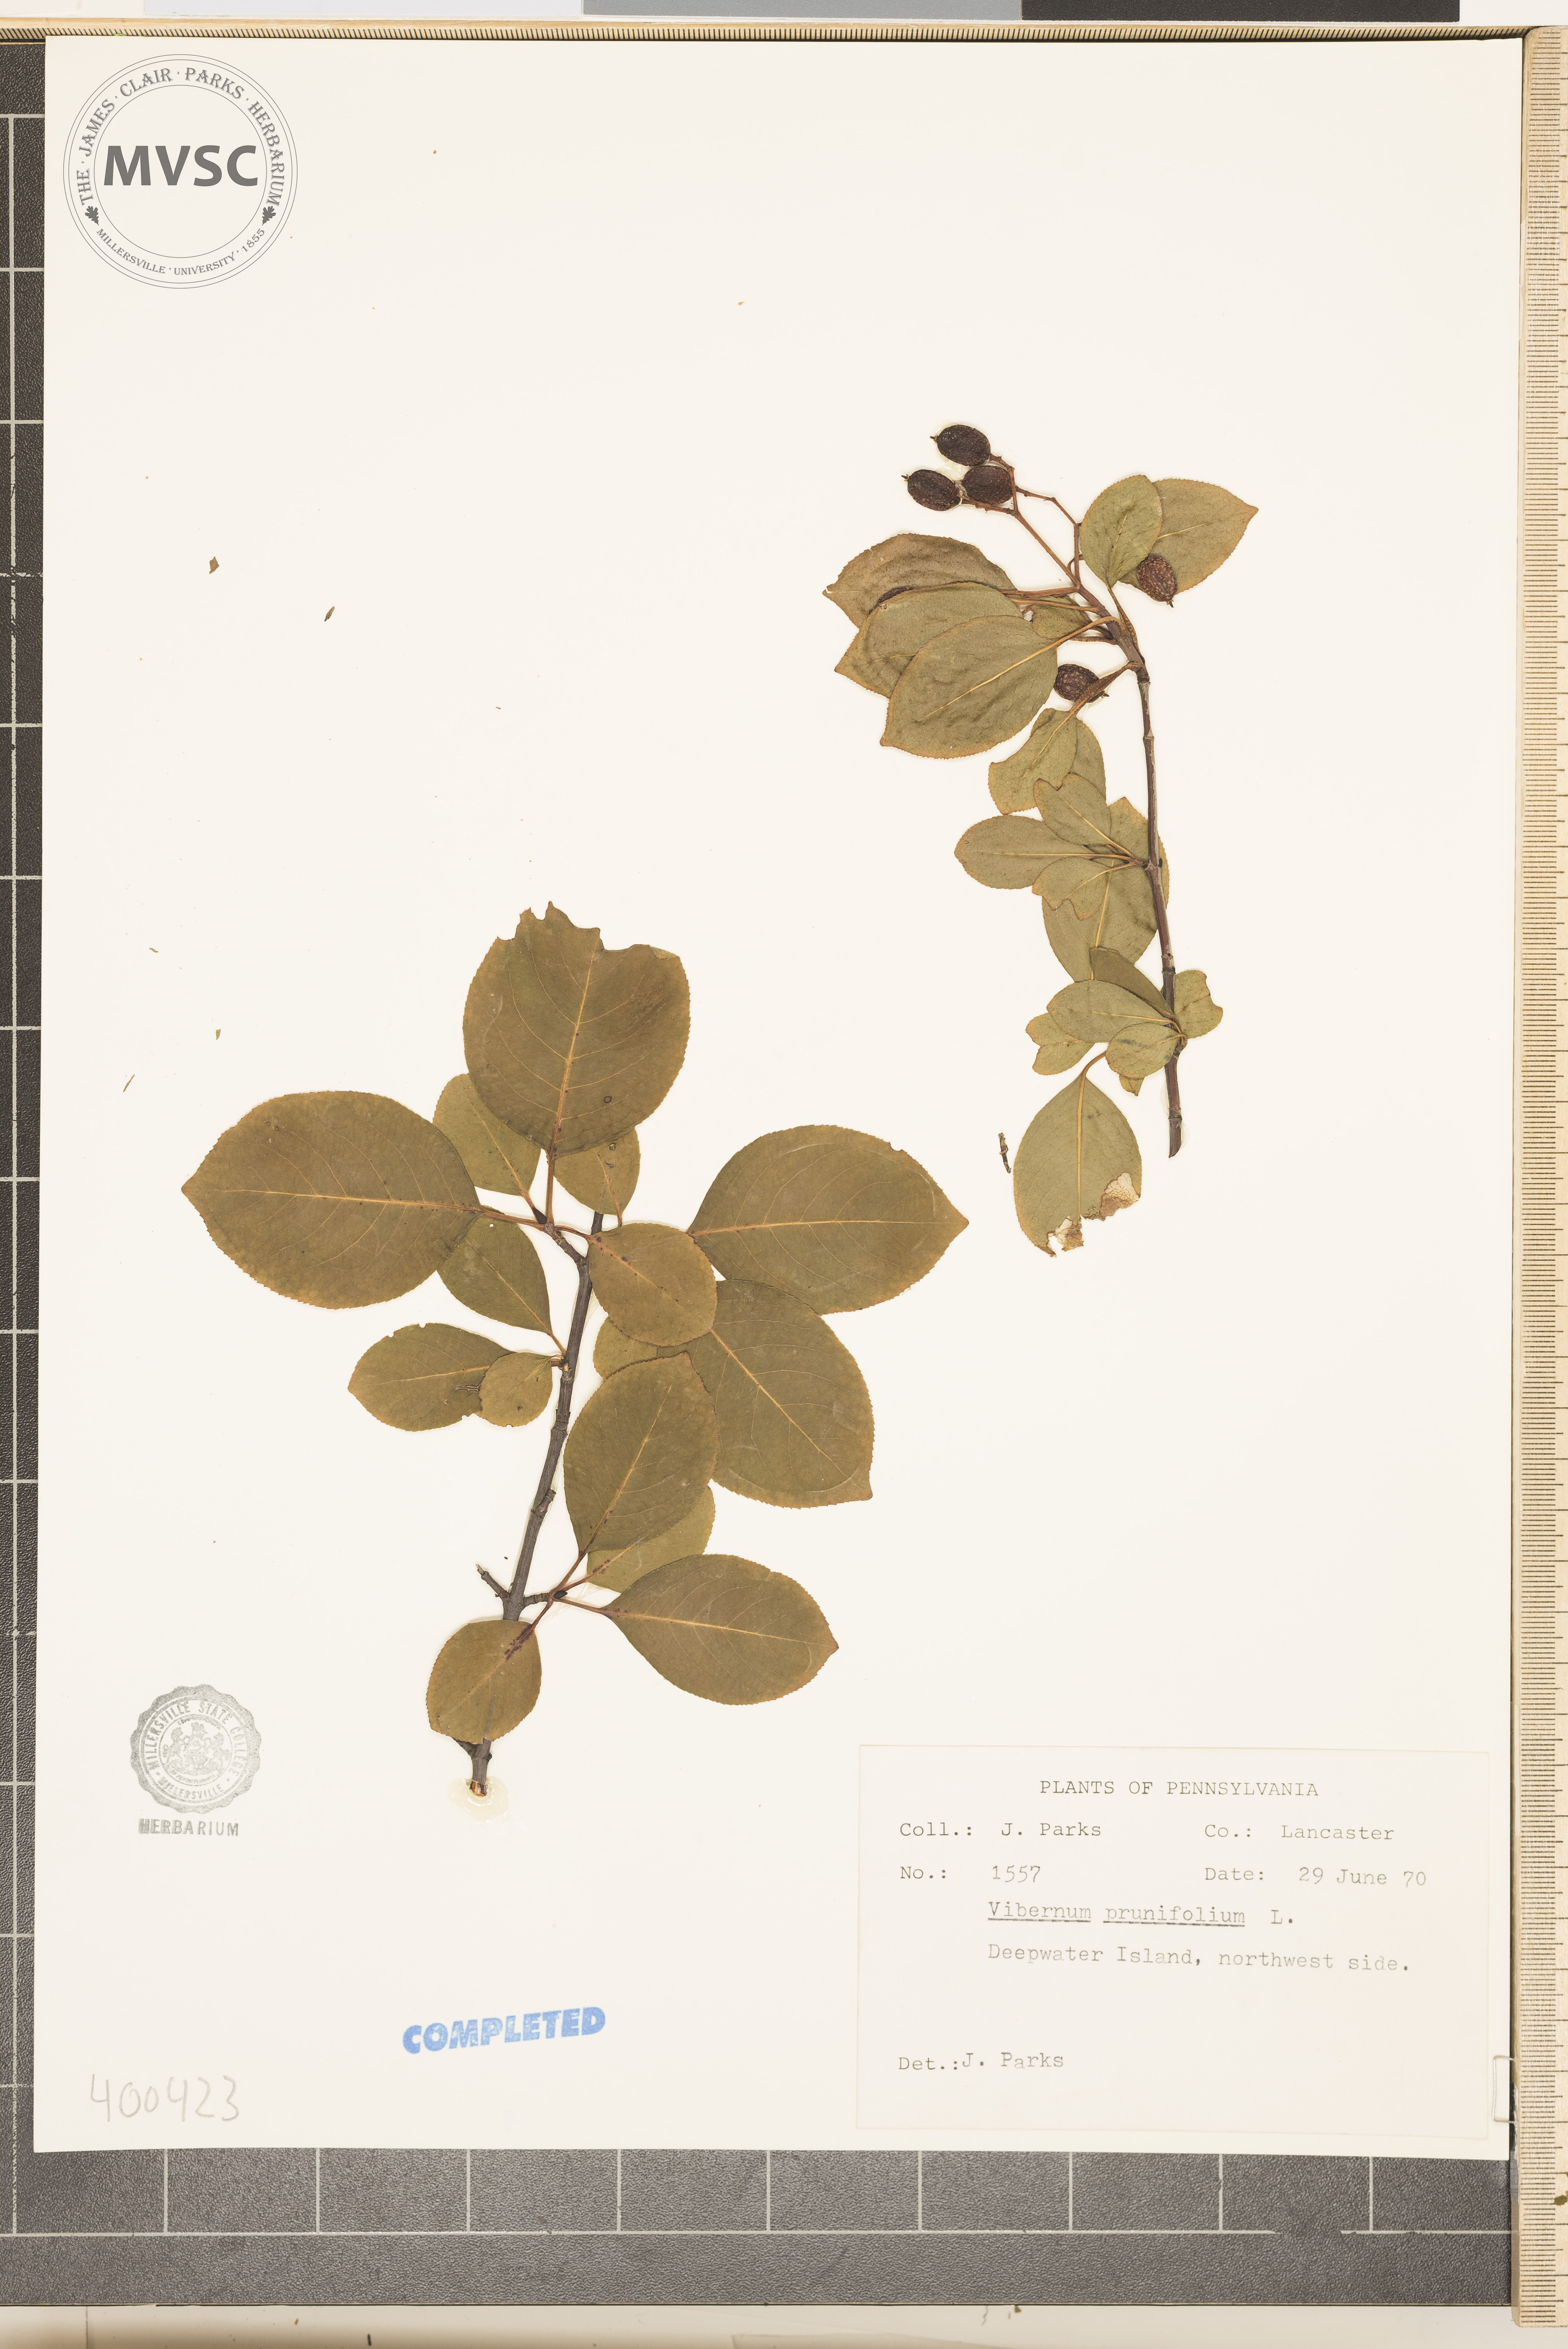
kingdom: Plantae
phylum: Tracheophyta
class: Magnoliopsida
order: Dipsacales
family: Viburnaceae
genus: Viburnum
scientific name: Viburnum prunifolium
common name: blackhaw
